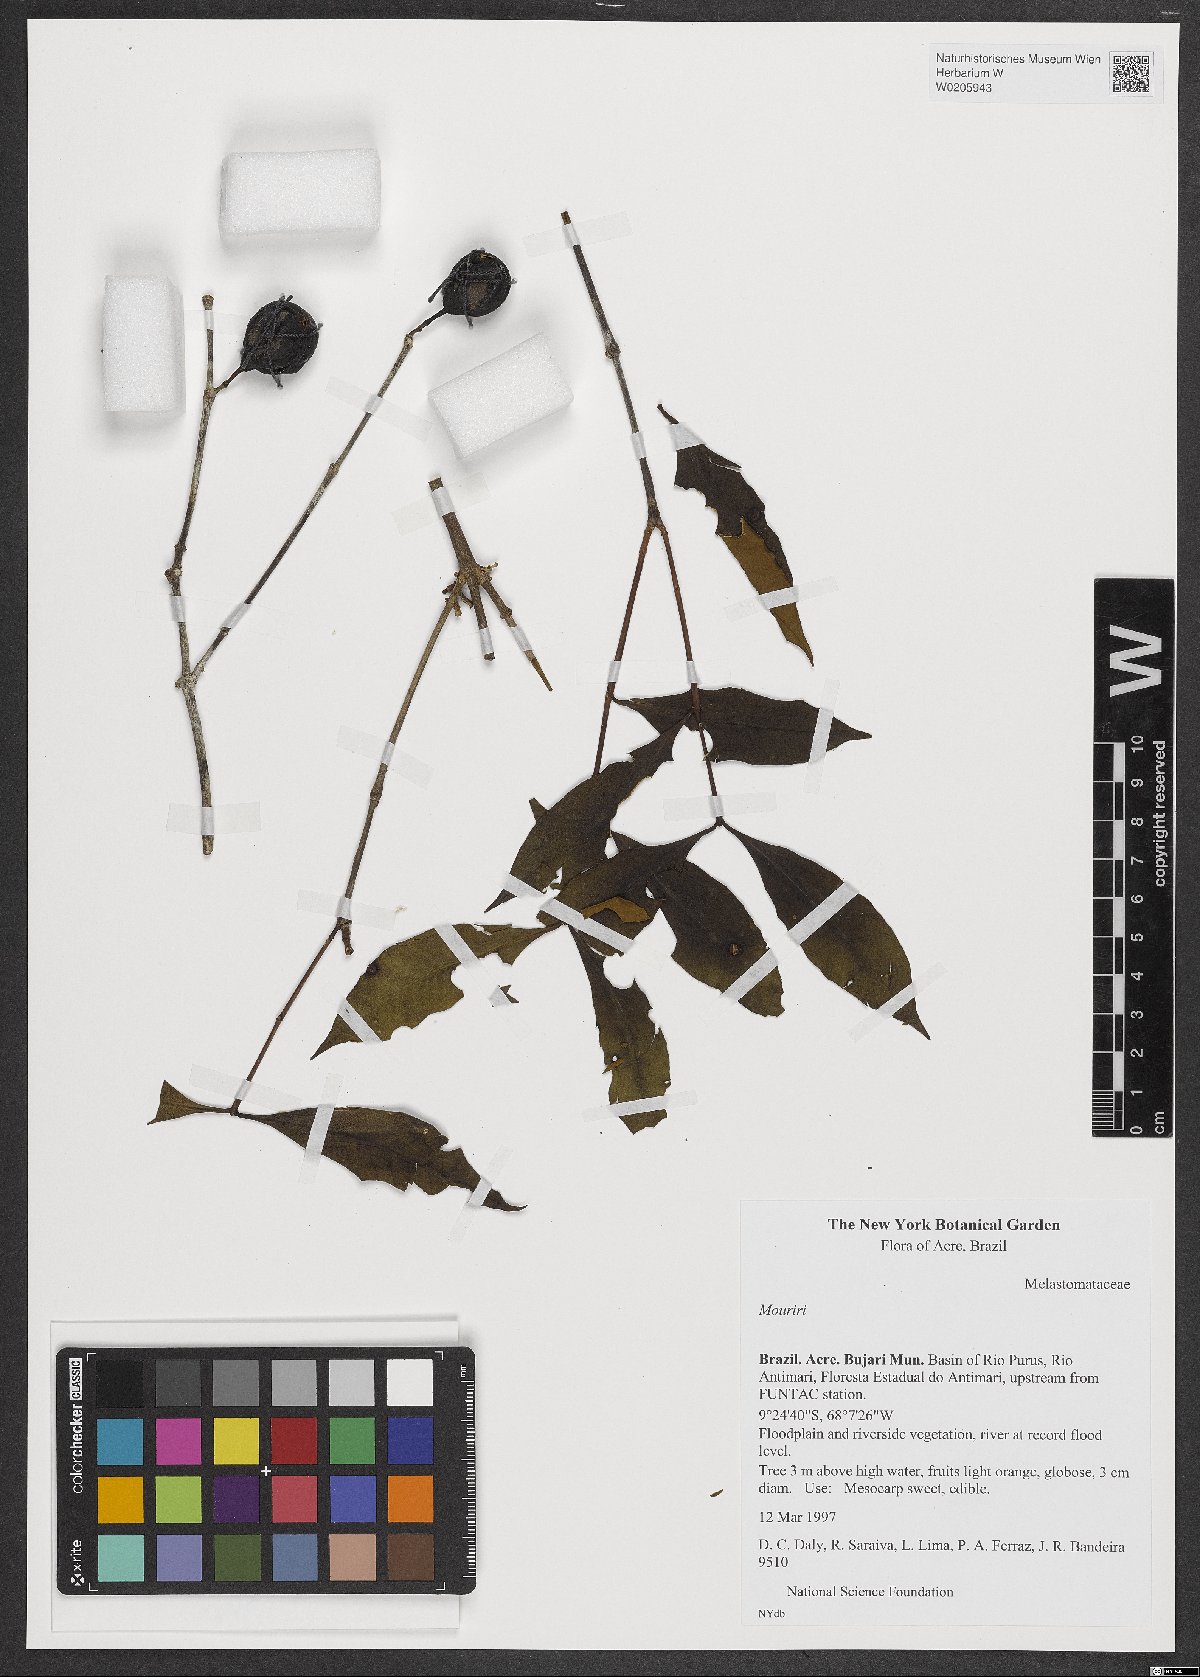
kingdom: Plantae
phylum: Tracheophyta
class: Magnoliopsida
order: Myrtales
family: Melastomataceae
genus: Mouriri
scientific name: Mouriri
